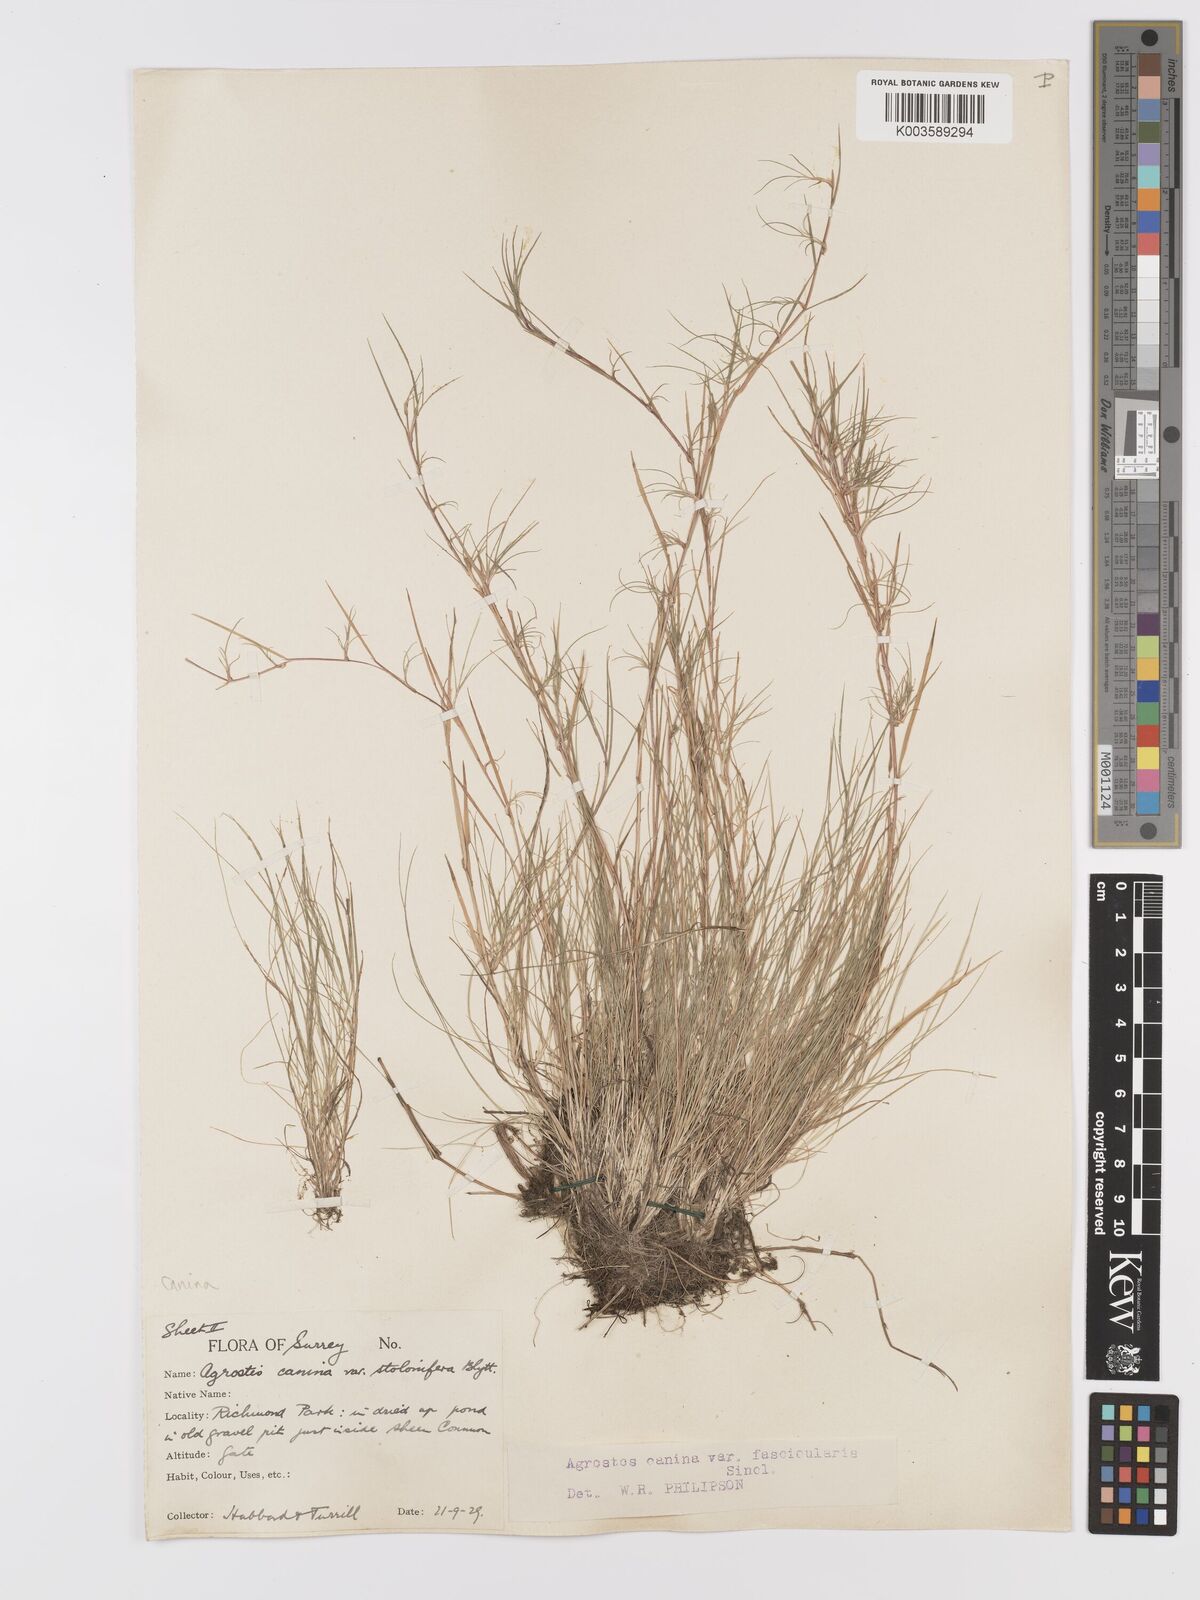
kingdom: Plantae
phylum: Tracheophyta
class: Liliopsida
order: Poales
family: Poaceae
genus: Agrostis
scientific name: Agrostis canina
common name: Velvet bent
